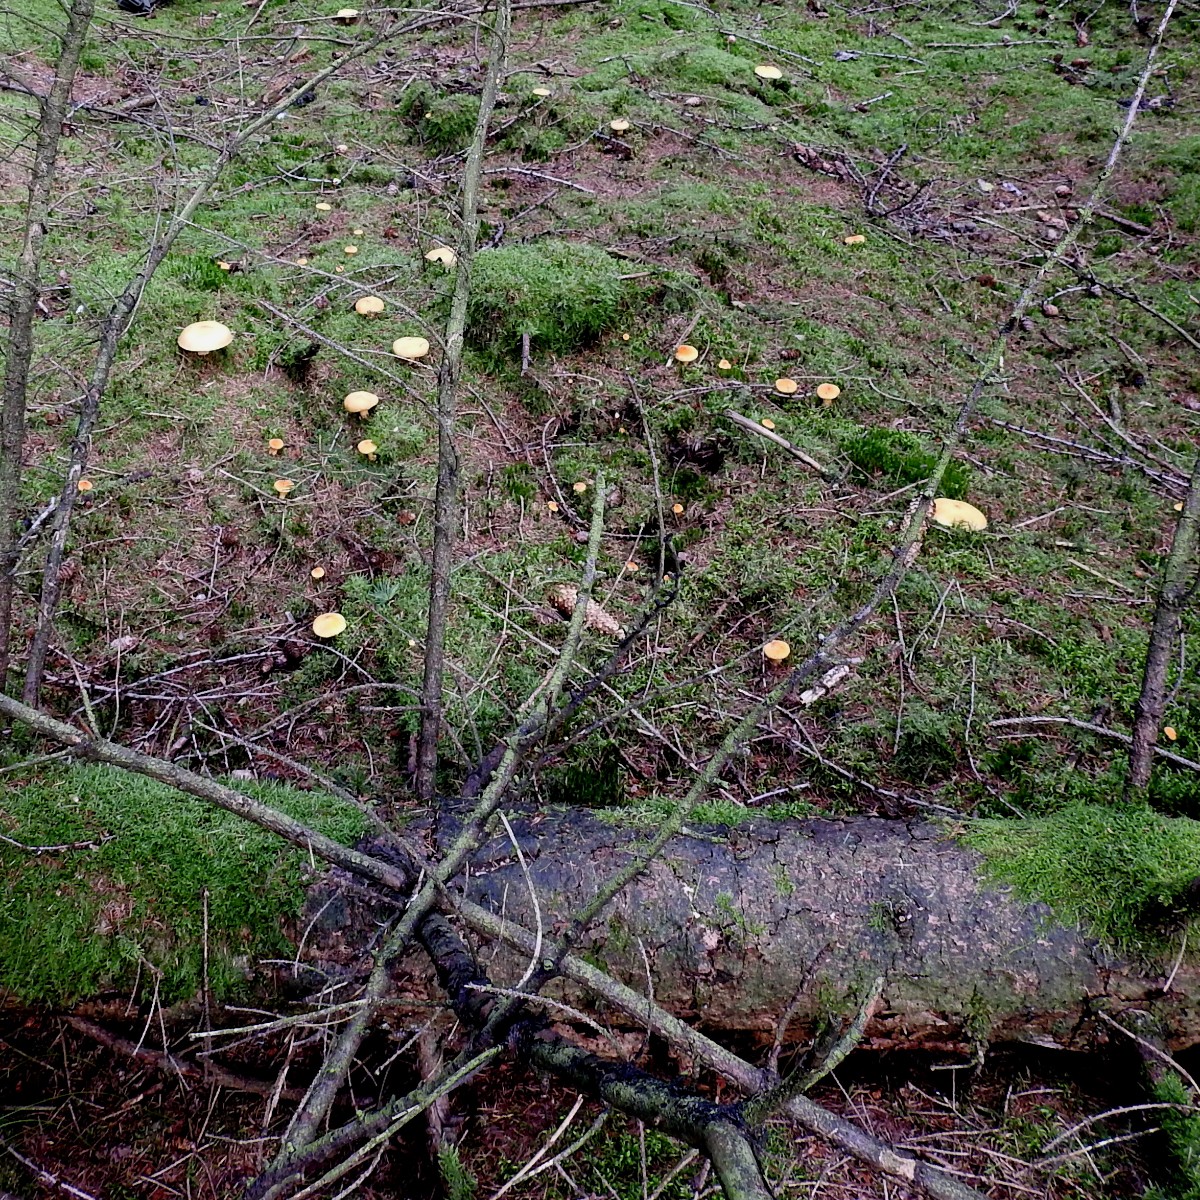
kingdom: Fungi
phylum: Basidiomycota
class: Agaricomycetes
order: Boletales
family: Suillaceae
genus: Suillus
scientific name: Suillus cavipes
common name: hulstokket slimrørhat, gul form
